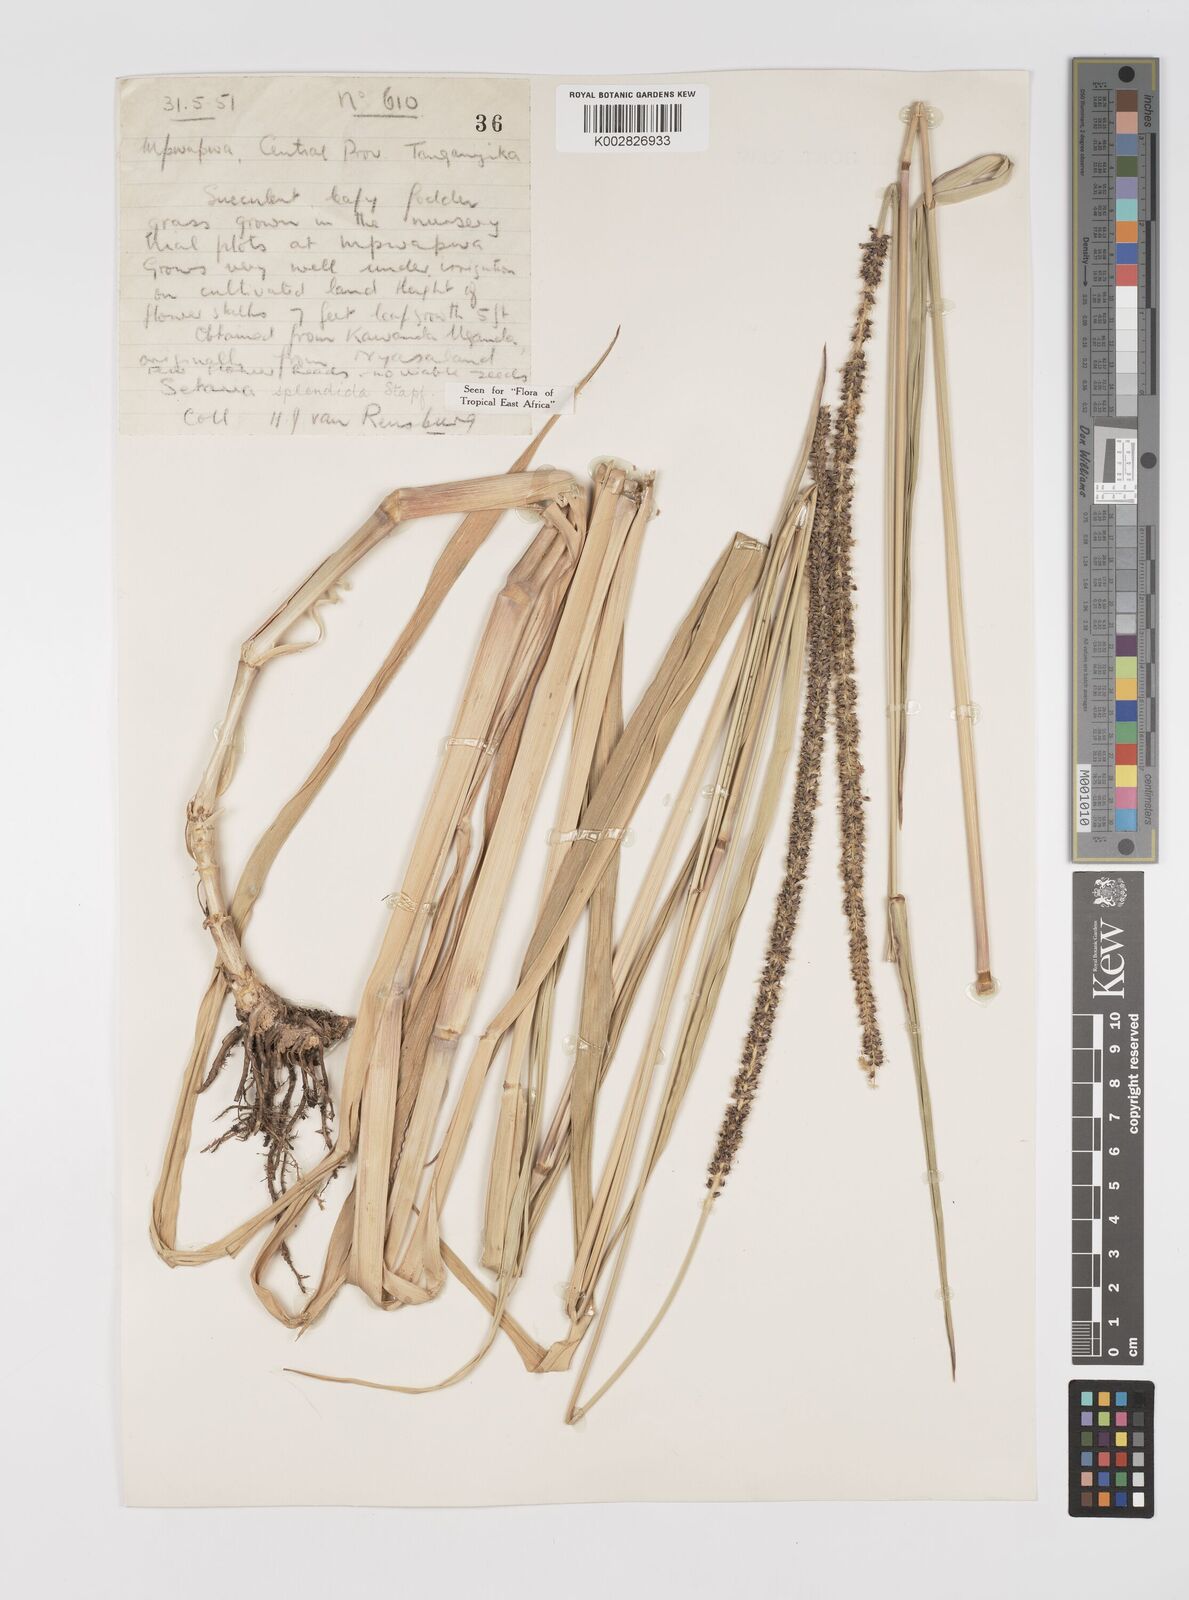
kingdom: Plantae
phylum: Tracheophyta
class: Liliopsida
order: Poales
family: Poaceae
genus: Setaria
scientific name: Setaria sphacelata
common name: African bristlegrass
